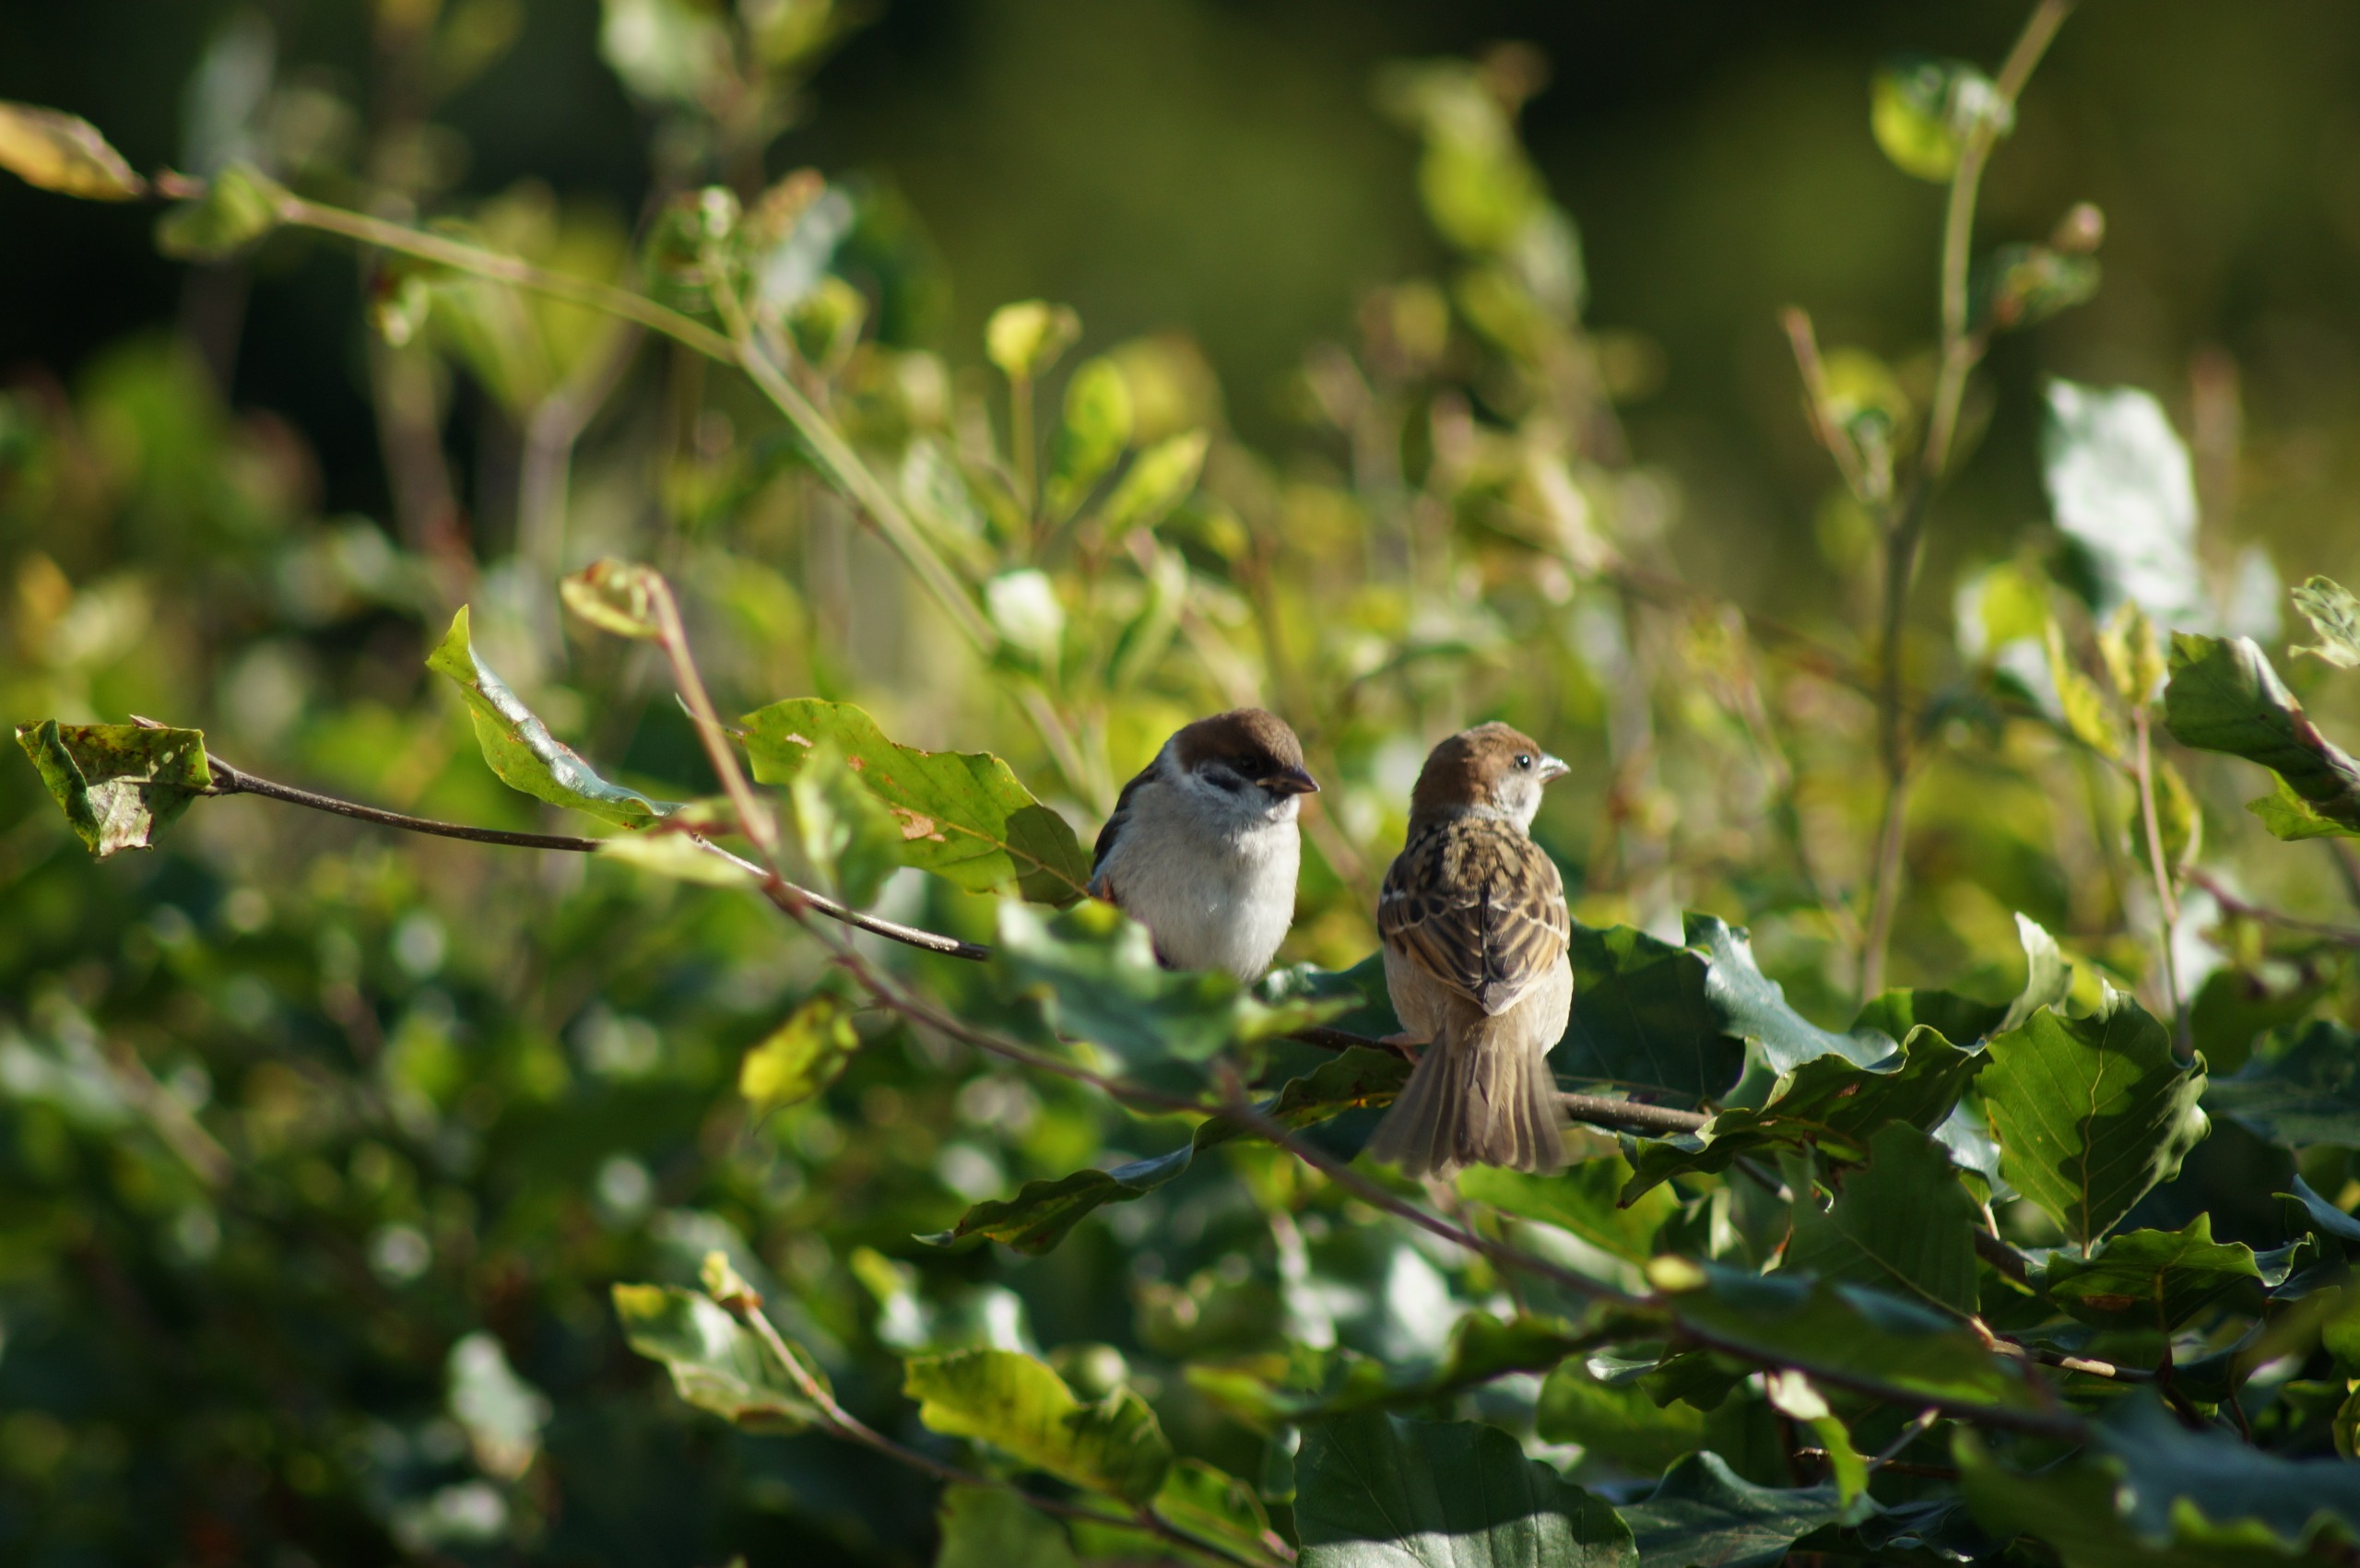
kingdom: Animalia
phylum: Chordata
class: Aves
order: Passeriformes
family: Passeridae
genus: Passer
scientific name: Passer montanus
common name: Skovspurv
